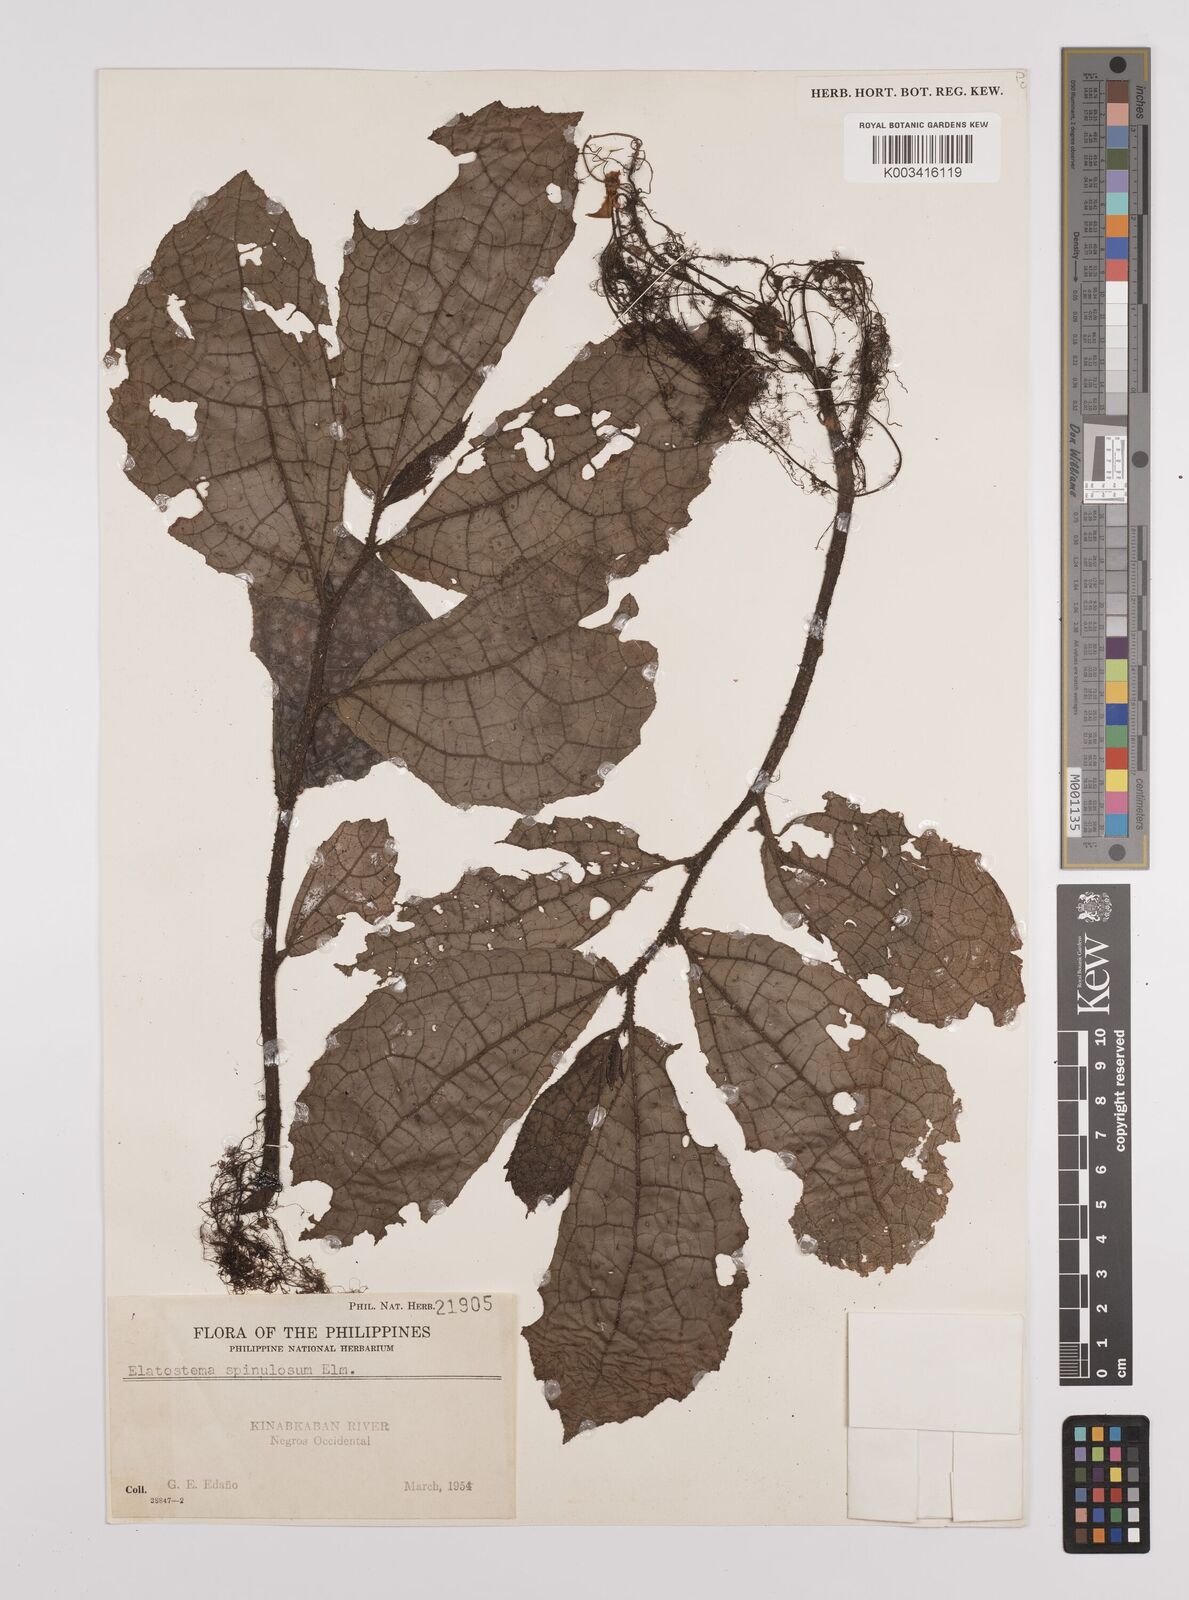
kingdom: Plantae
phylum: Tracheophyta
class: Magnoliopsida
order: Rosales
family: Urticaceae
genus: Elatostema
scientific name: Elatostema spinulosum
